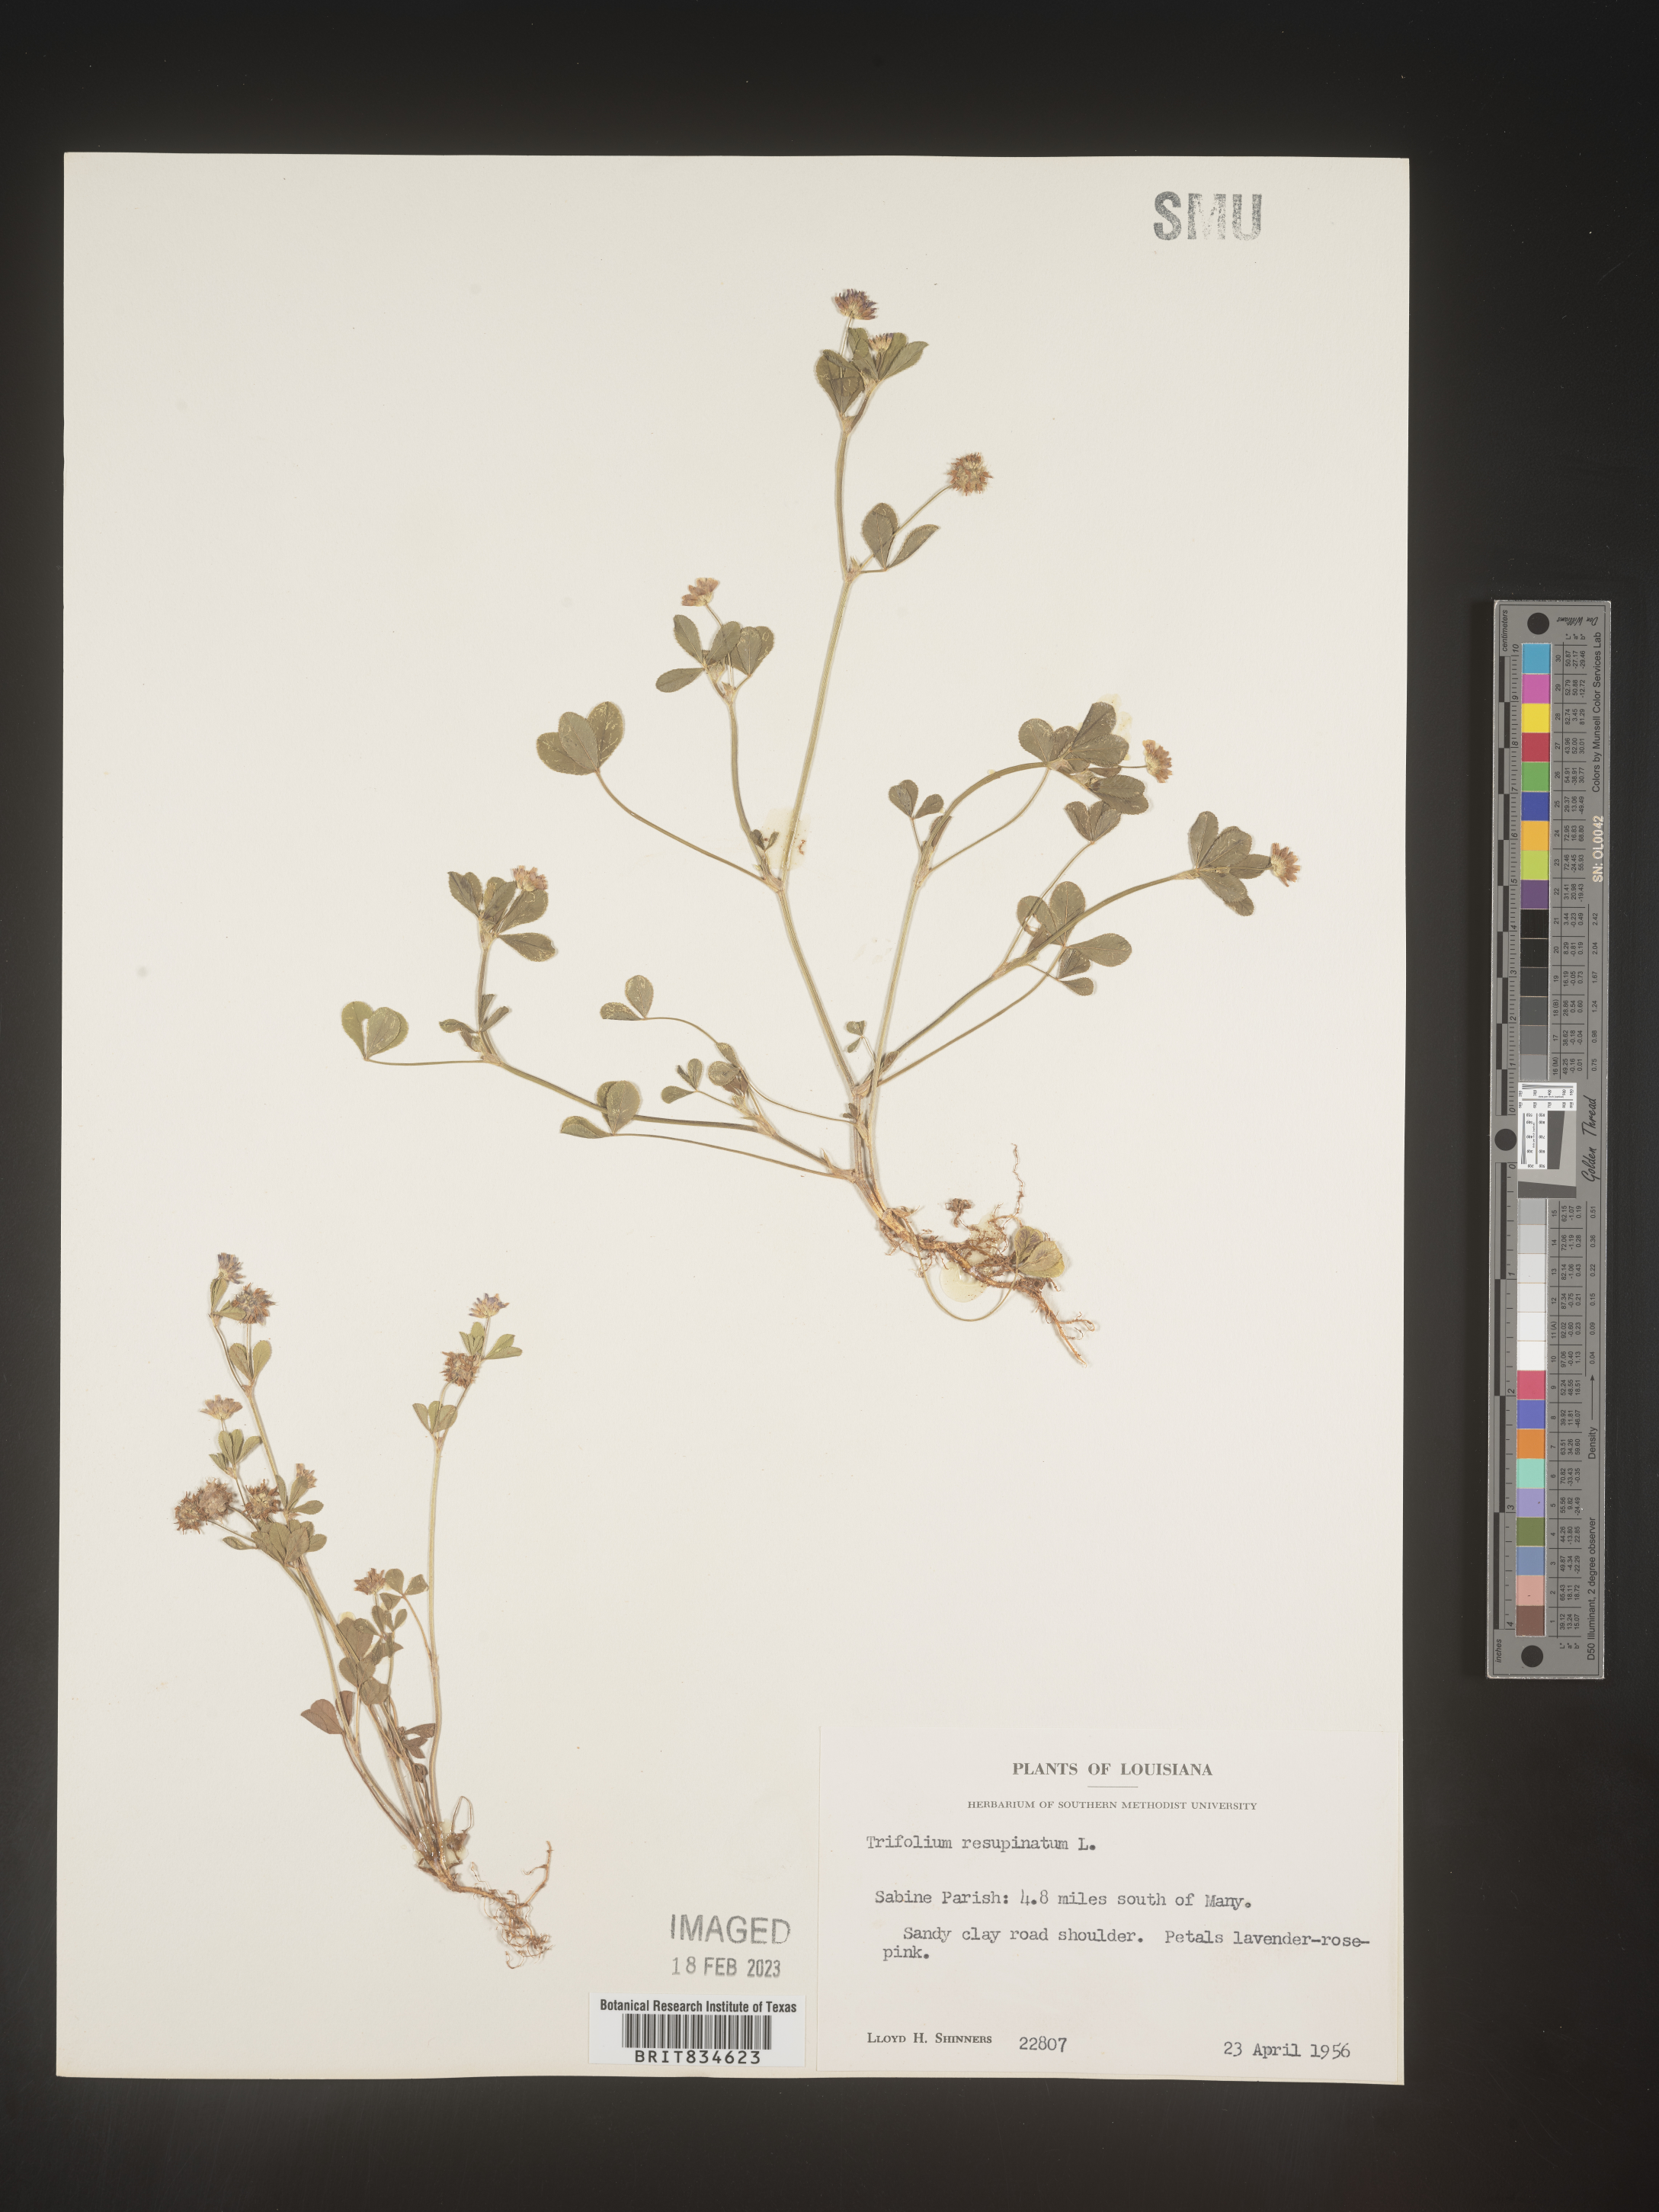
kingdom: Plantae
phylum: Tracheophyta
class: Magnoliopsida
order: Fabales
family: Fabaceae
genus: Trifolium
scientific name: Trifolium resupinatum
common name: Reversed clover
